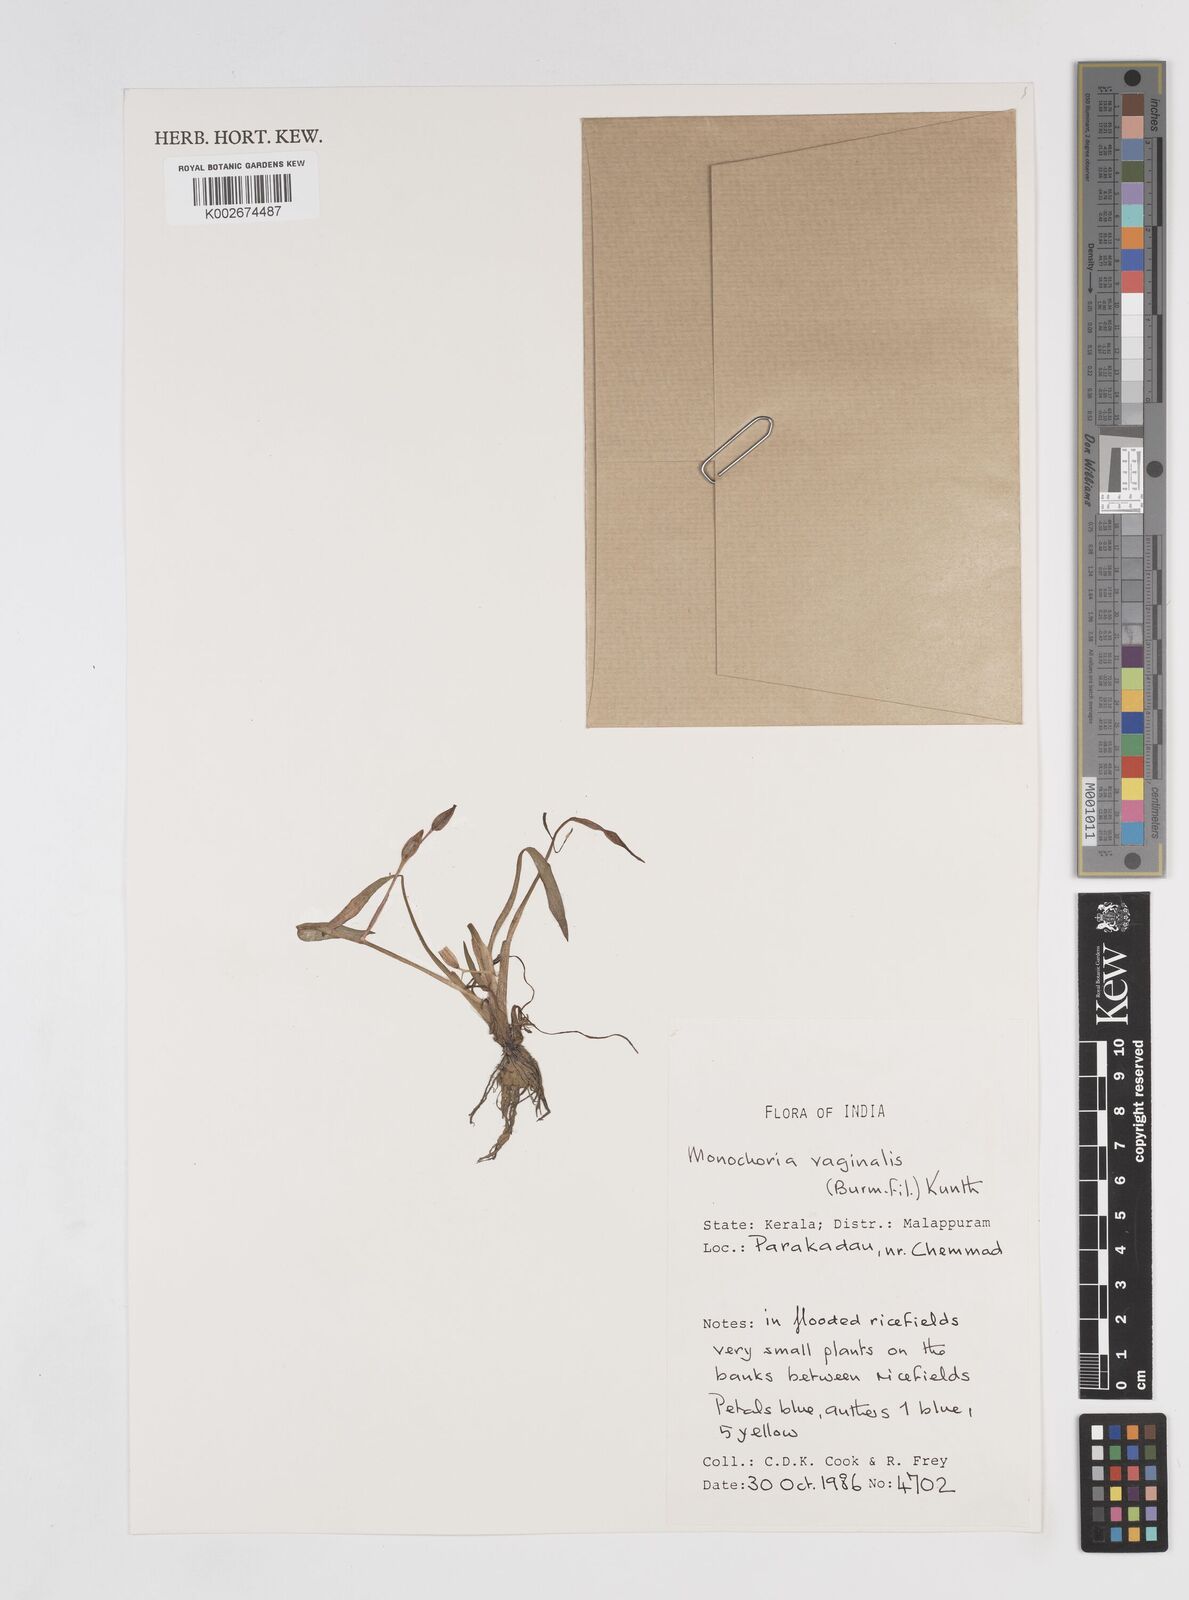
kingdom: Plantae
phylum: Tracheophyta
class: Liliopsida
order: Commelinales
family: Pontederiaceae
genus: Pontederia
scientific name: Pontederia vaginalis
